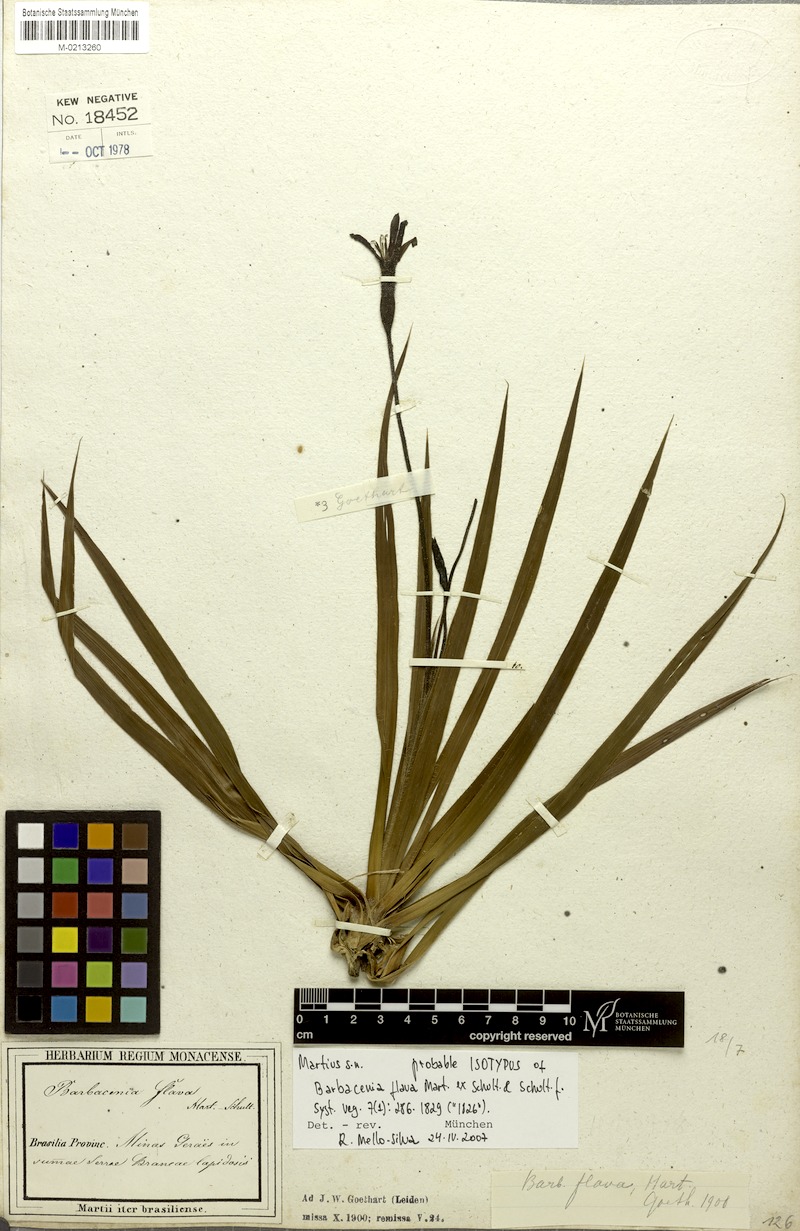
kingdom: Plantae
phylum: Tracheophyta
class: Liliopsida
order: Pandanales
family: Velloziaceae
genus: Barbacenia
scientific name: Barbacenia flava
